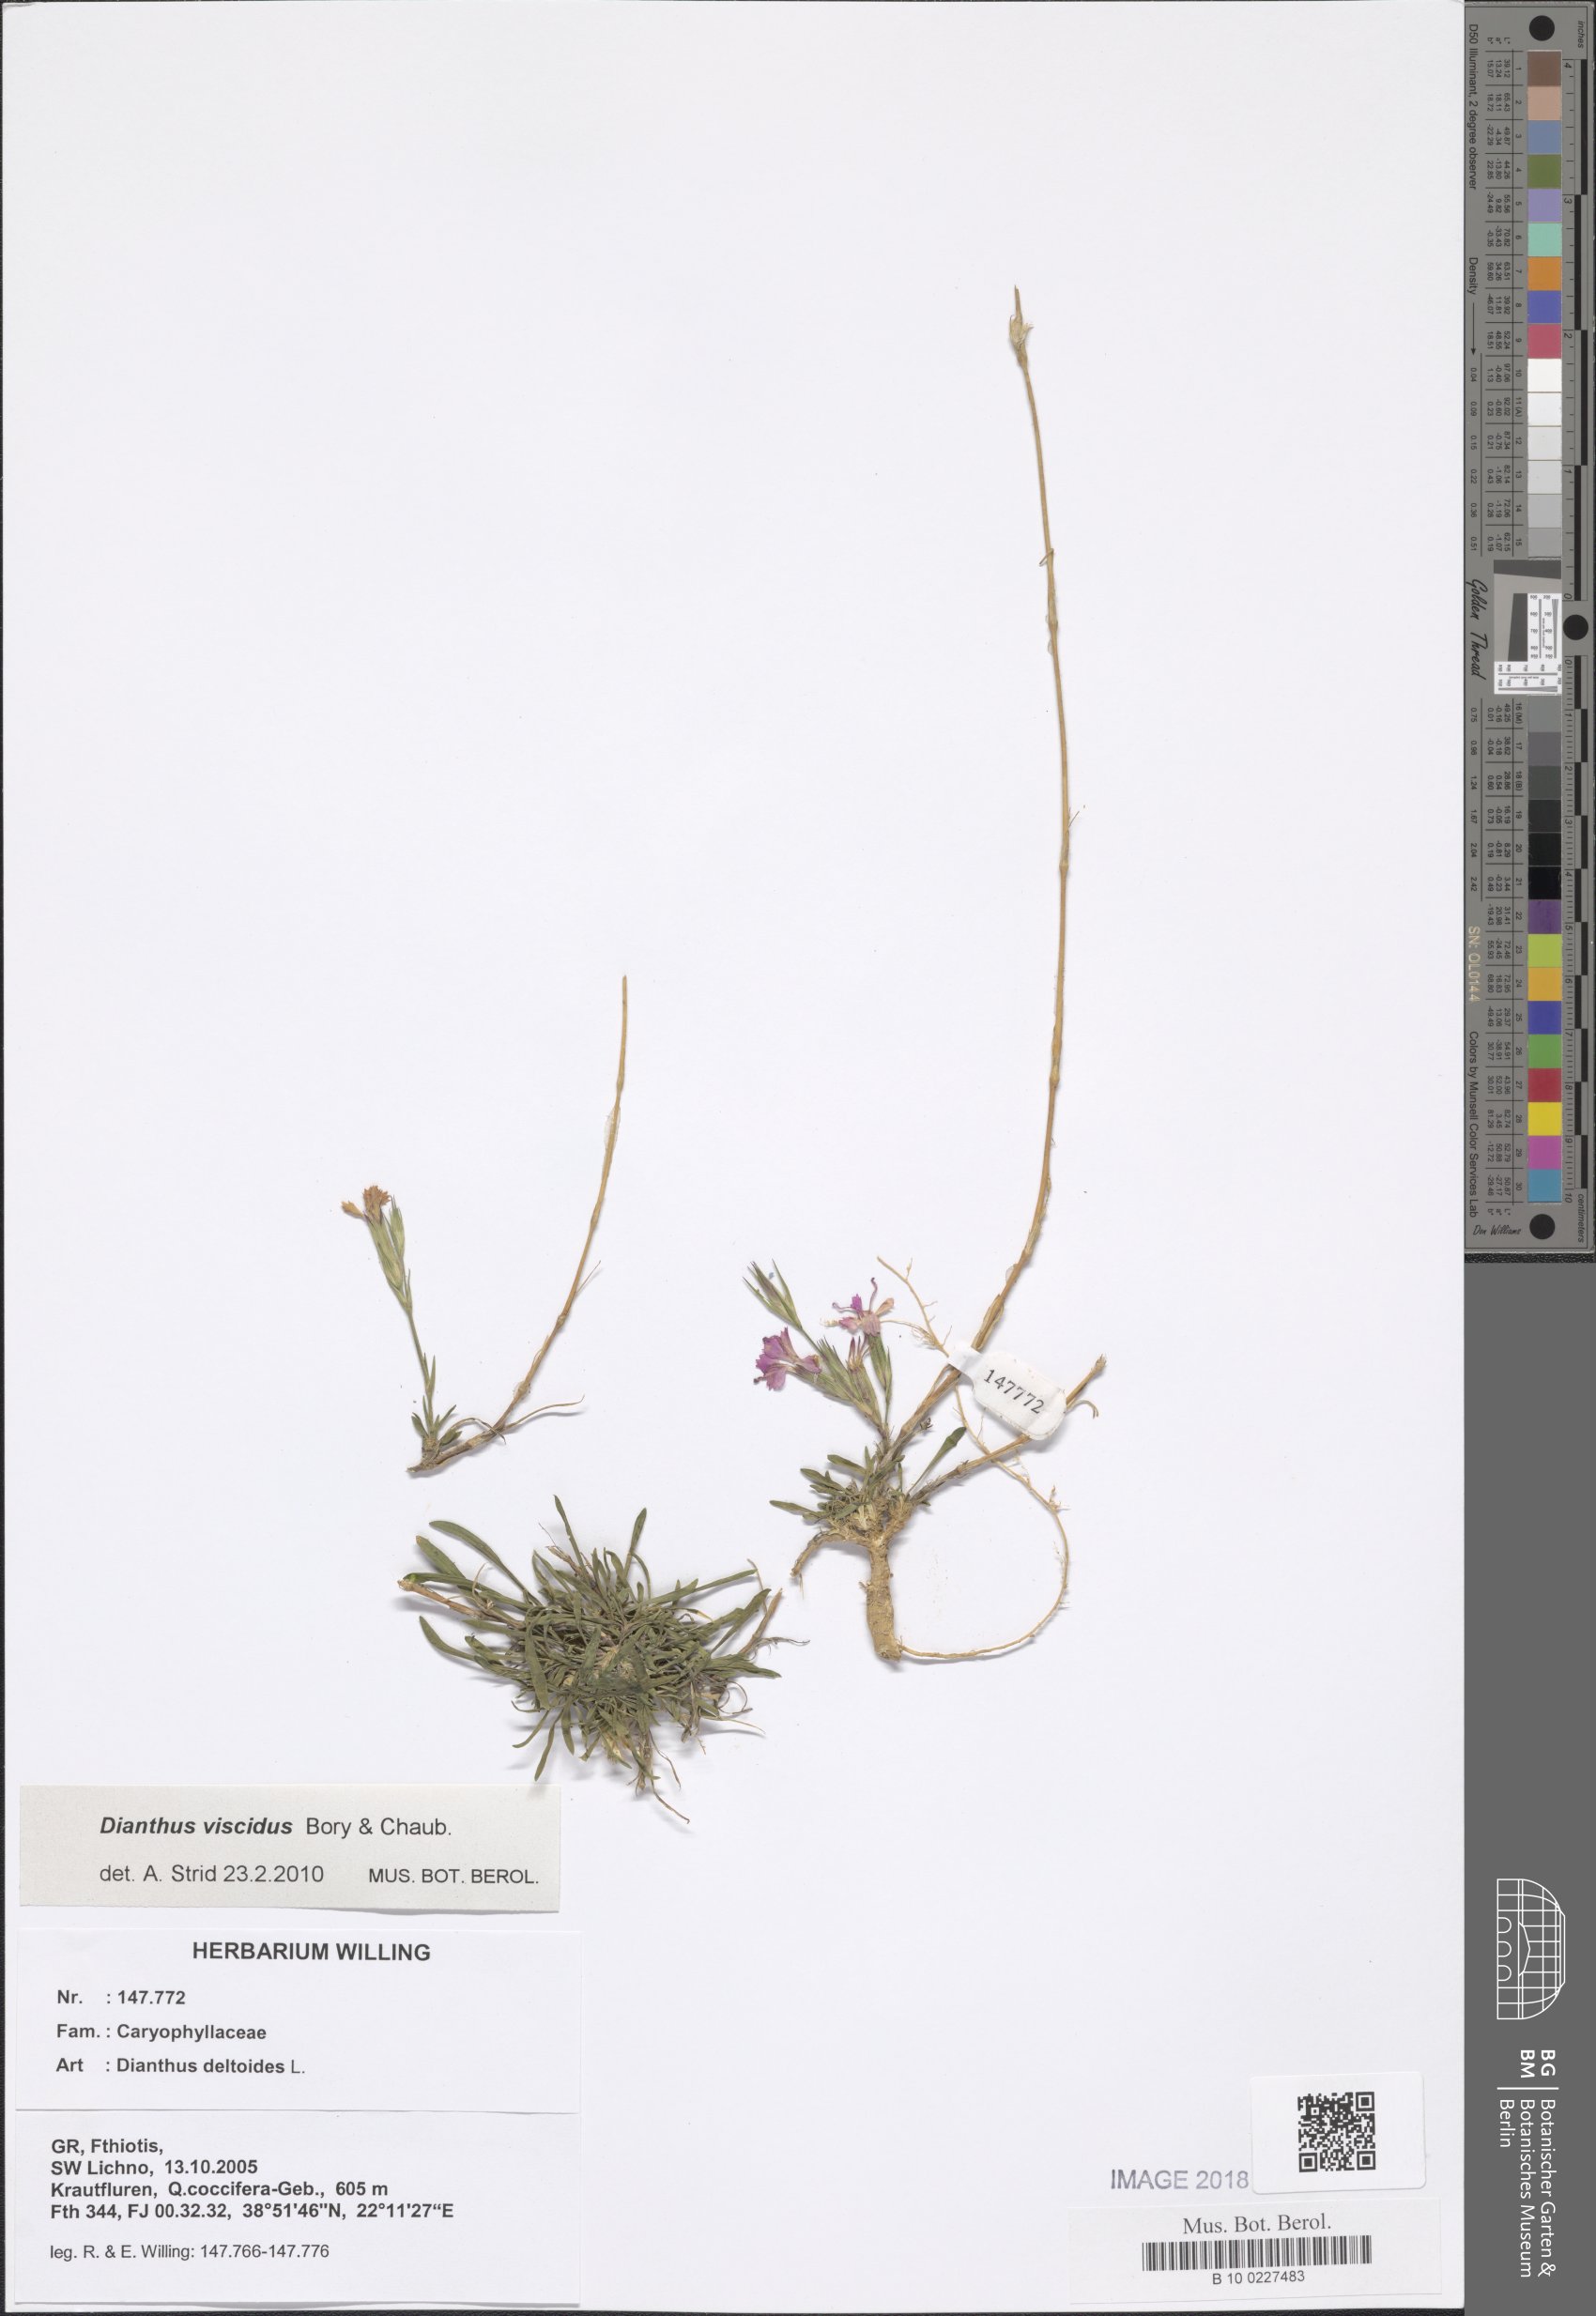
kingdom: Plantae
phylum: Tracheophyta
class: Magnoliopsida
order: Caryophyllales
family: Caryophyllaceae
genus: Dianthus
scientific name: Dianthus deltoides
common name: Maiden pink
